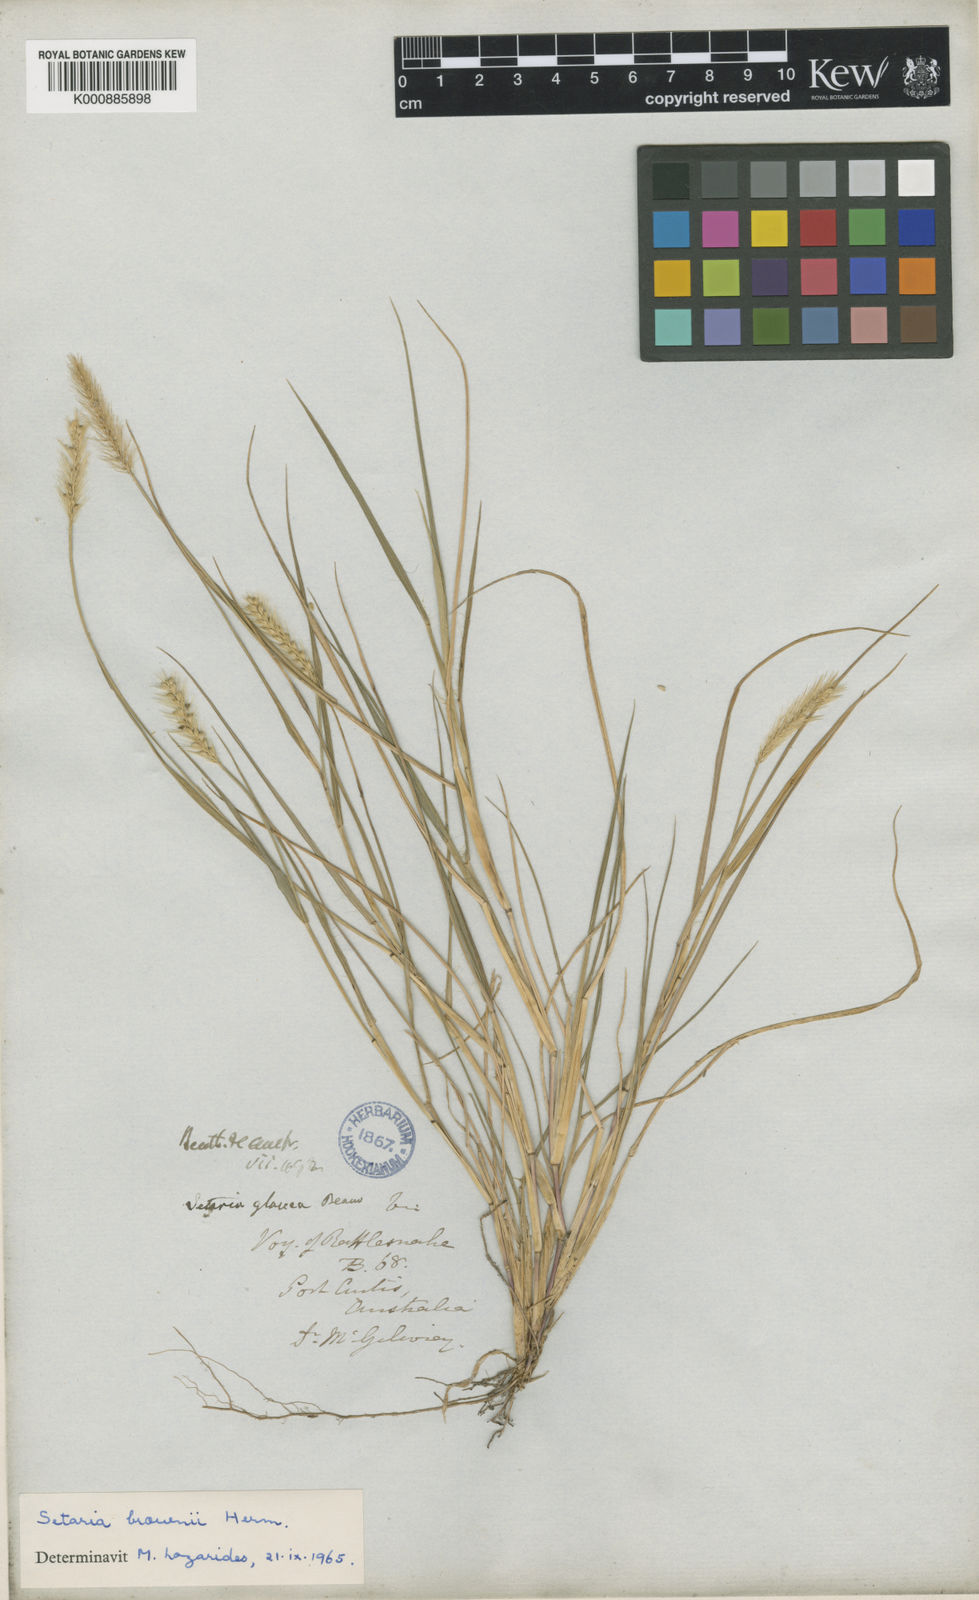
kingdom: Plantae
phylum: Tracheophyta
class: Liliopsida
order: Poales
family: Poaceae
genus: Setaria
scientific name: Setaria apiculata
